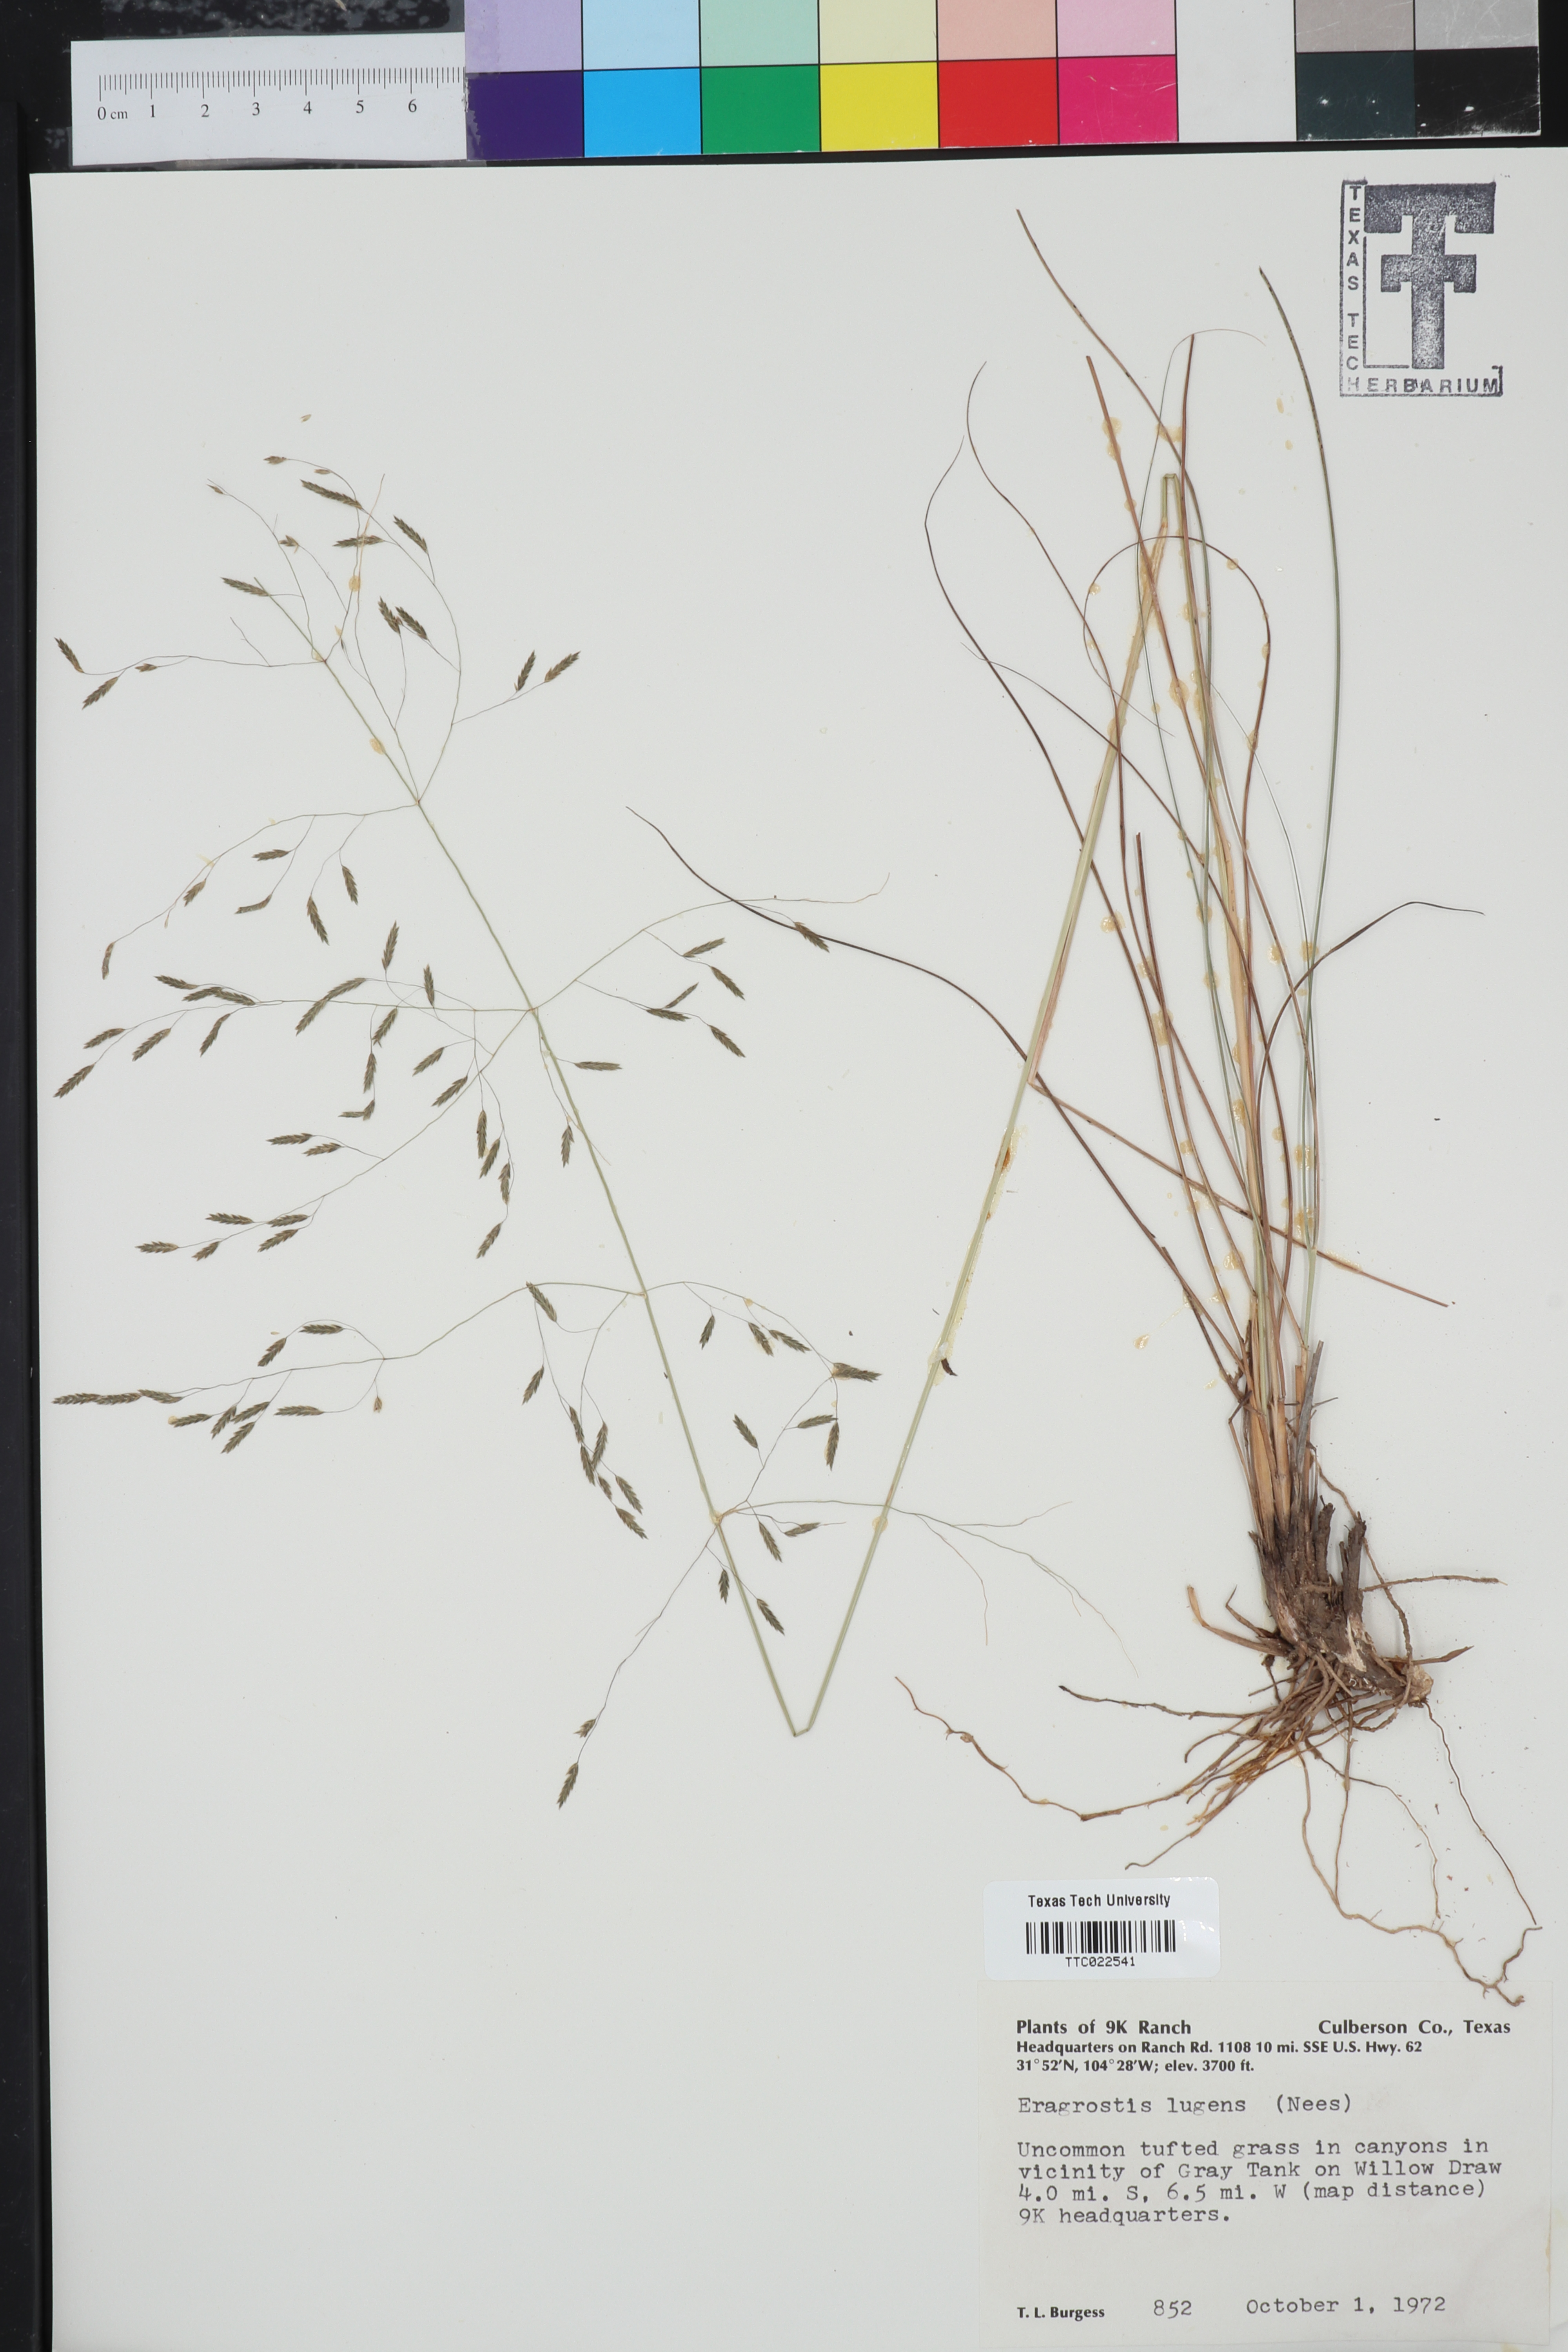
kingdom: Plantae
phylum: Tracheophyta
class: Liliopsida
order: Poales
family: Poaceae
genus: Eragrostis
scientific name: Eragrostis capillaris
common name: Hair-like lovegrass
